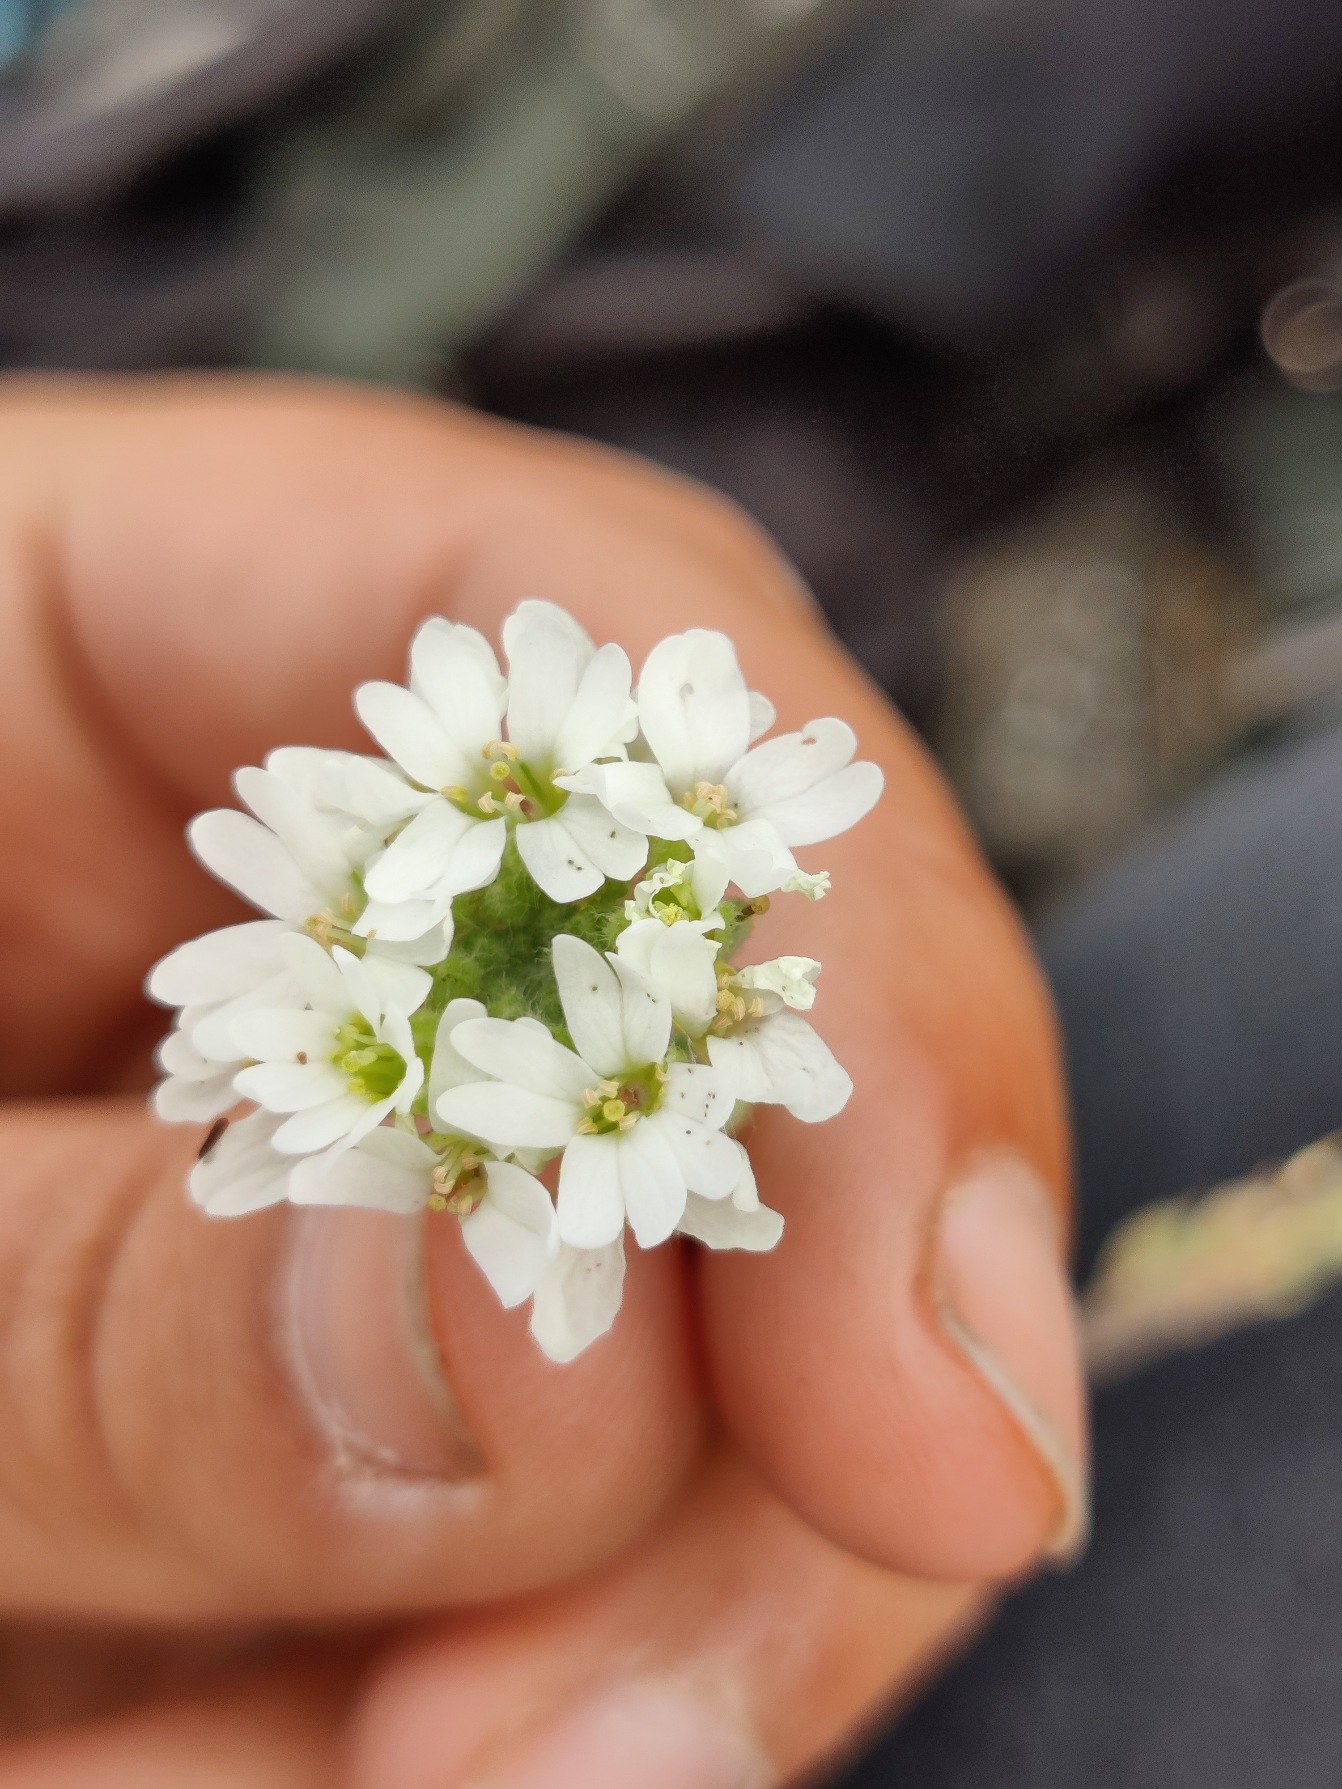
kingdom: Plantae
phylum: Tracheophyta
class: Magnoliopsida
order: Brassicales
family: Brassicaceae
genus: Berteroa
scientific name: Berteroa incana
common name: Kløvplade
